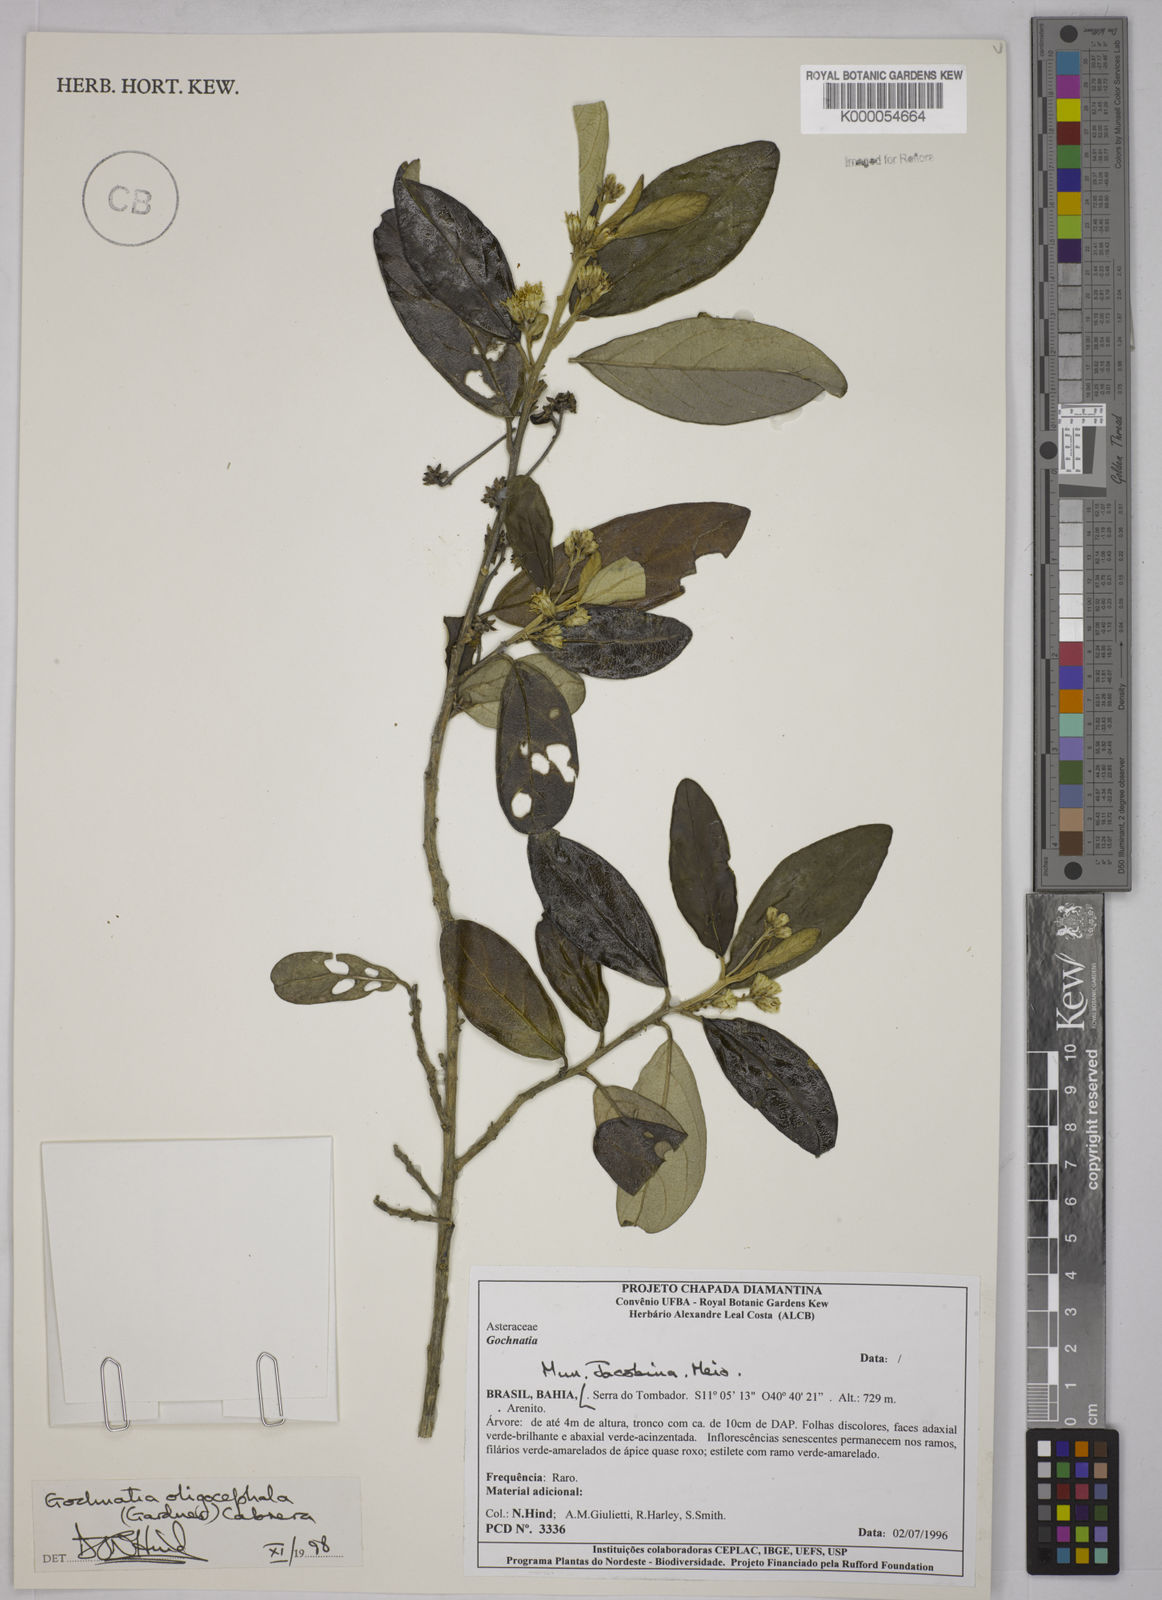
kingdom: Plantae
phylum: Tracheophyta
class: Magnoliopsida
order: Asterales
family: Asteraceae
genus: Moquiniastrum
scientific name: Moquiniastrum oligocephalum
